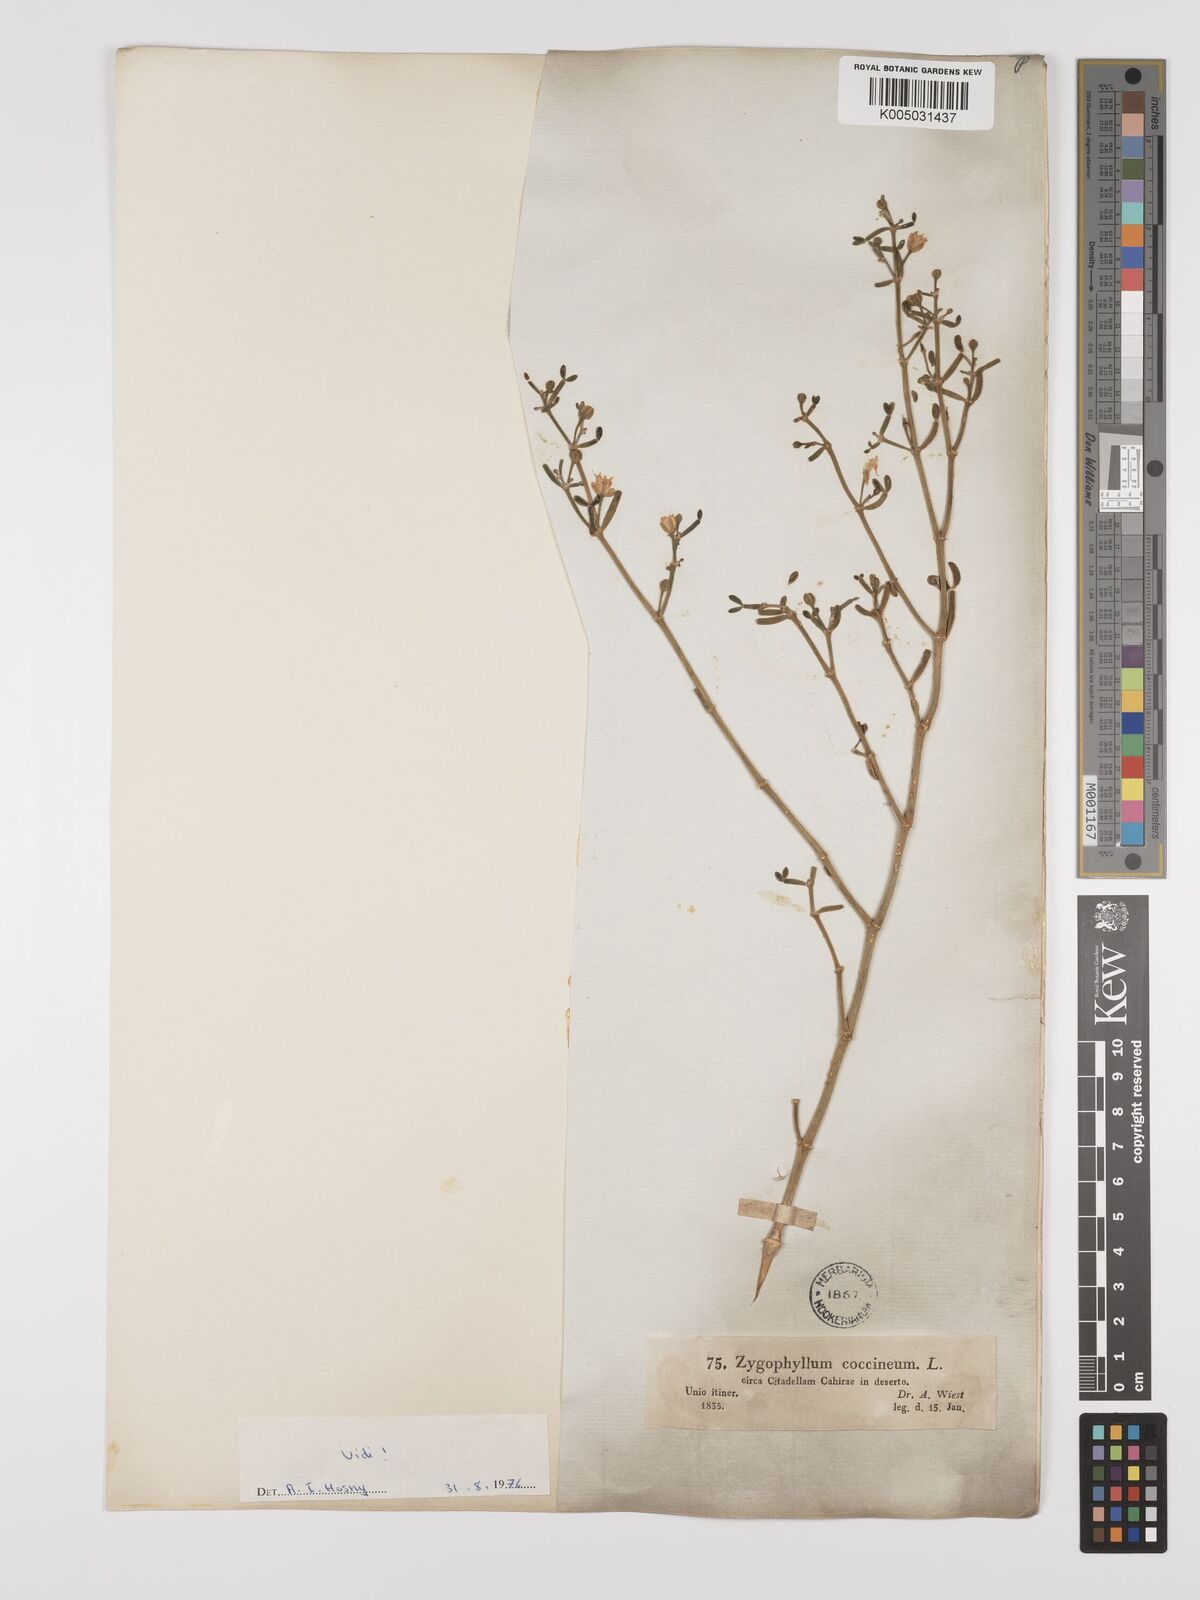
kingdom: Plantae
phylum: Tracheophyta
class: Magnoliopsida
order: Zygophyllales
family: Zygophyllaceae
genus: Zygophyllum
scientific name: Zygophyllum
